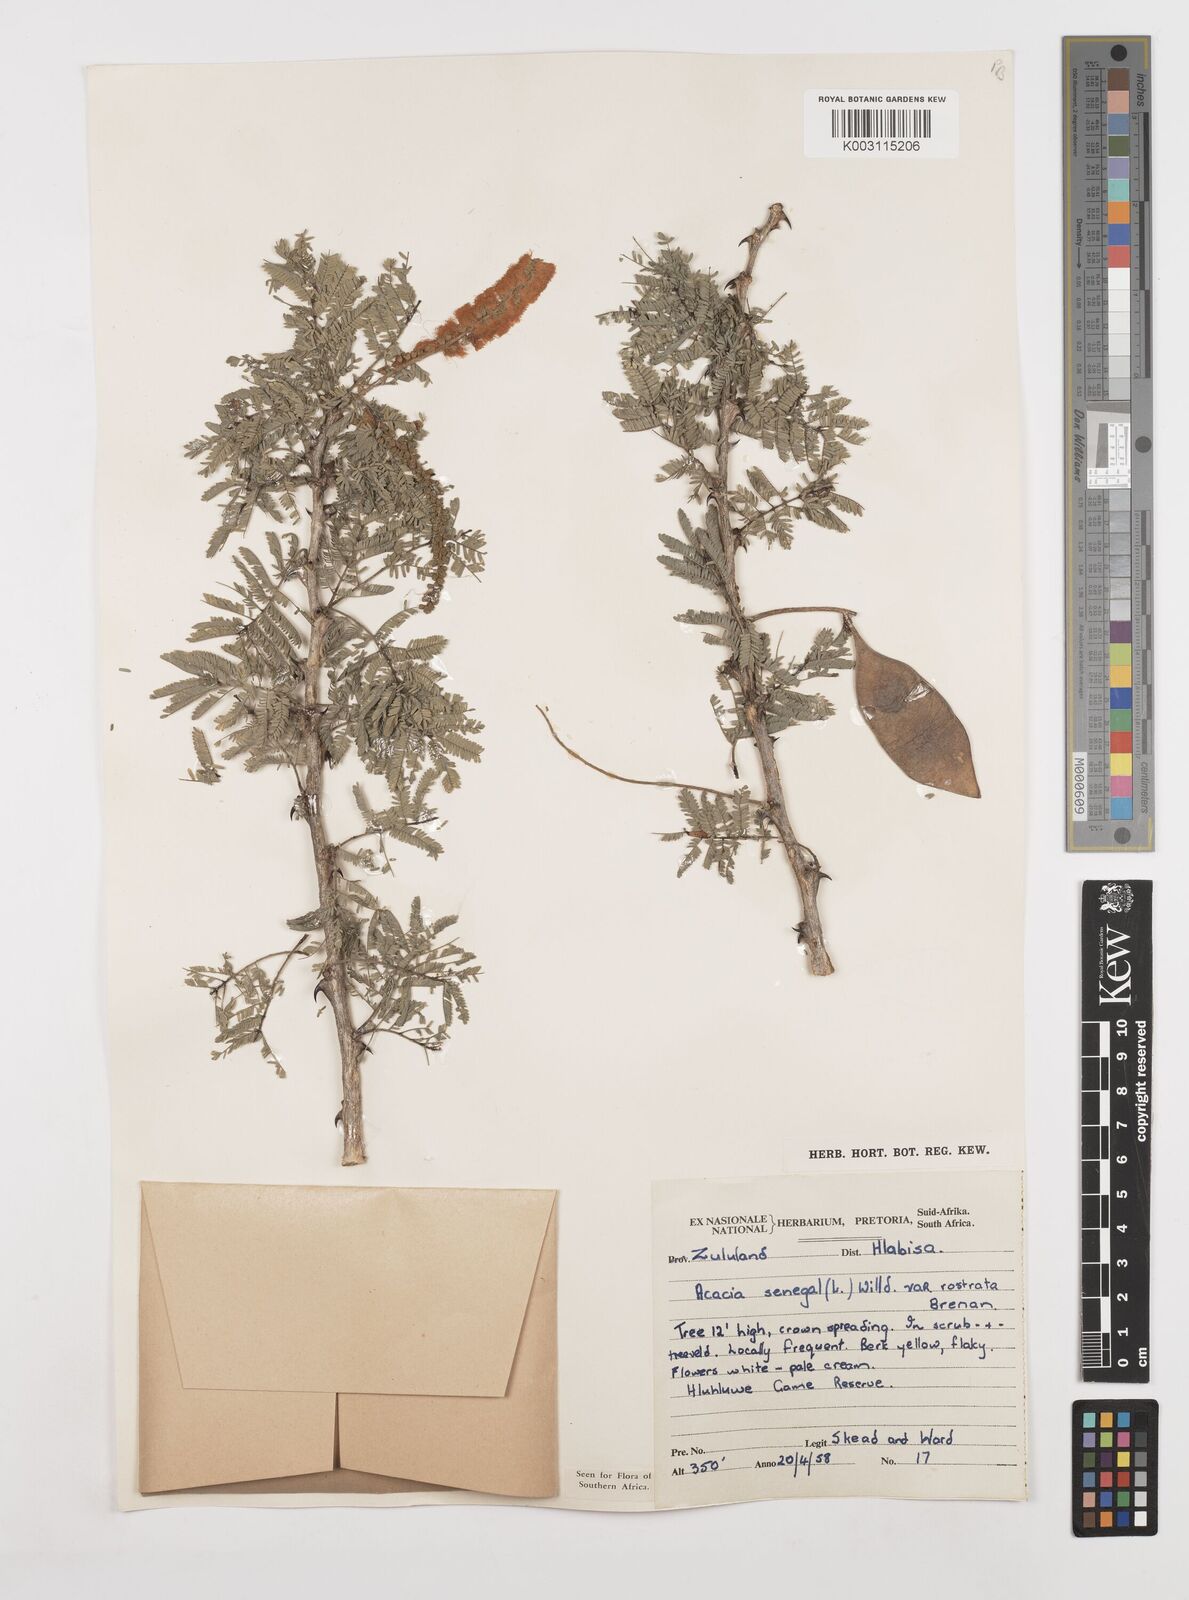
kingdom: Plantae
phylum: Tracheophyta
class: Magnoliopsida
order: Fabales
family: Fabaceae
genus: Senegalia
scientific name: Senegalia senegal
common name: Senegal-gum
